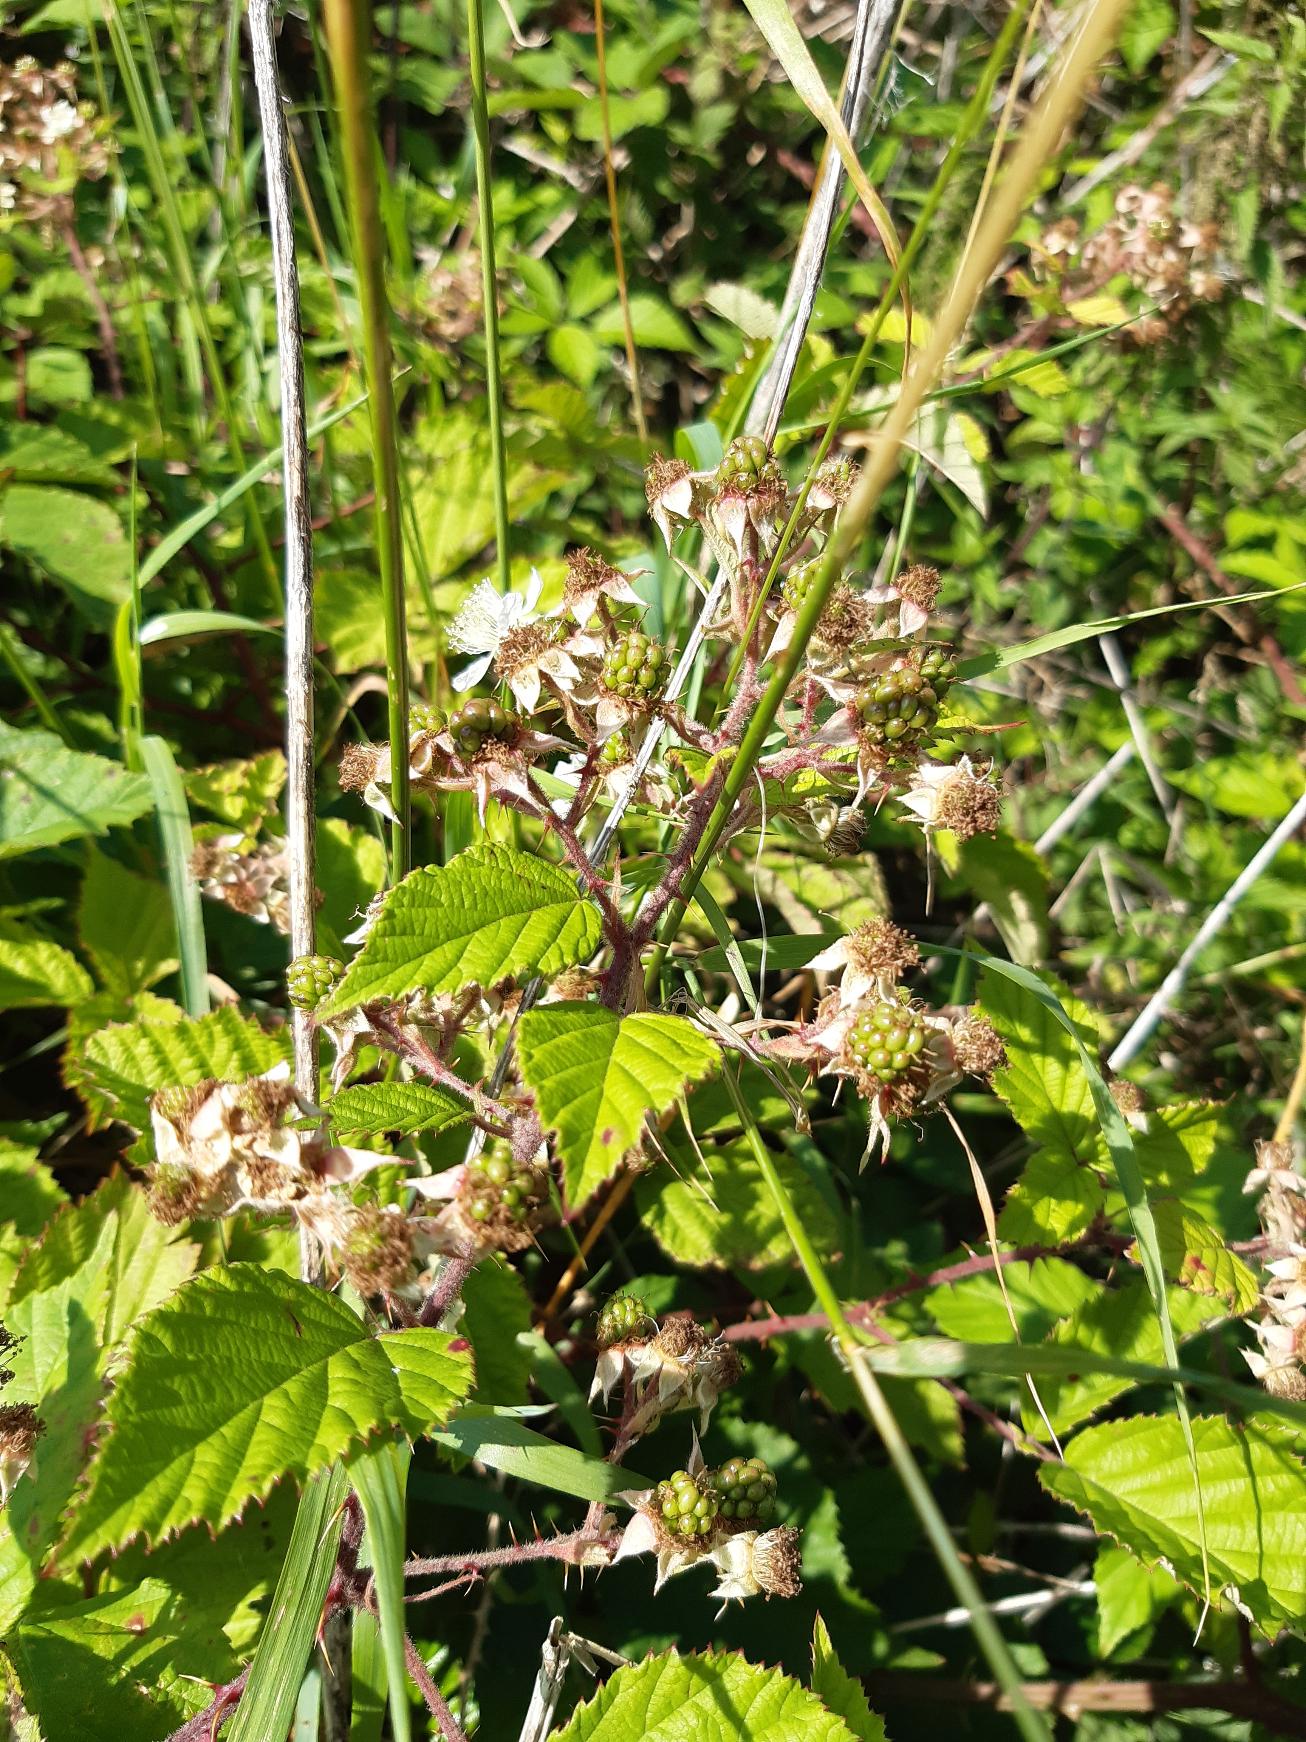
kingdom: Plantae
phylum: Tracheophyta
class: Magnoliopsida
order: Rosales
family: Rosaceae
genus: Rubus
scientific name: Rubus radula
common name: Rasperu brombær
